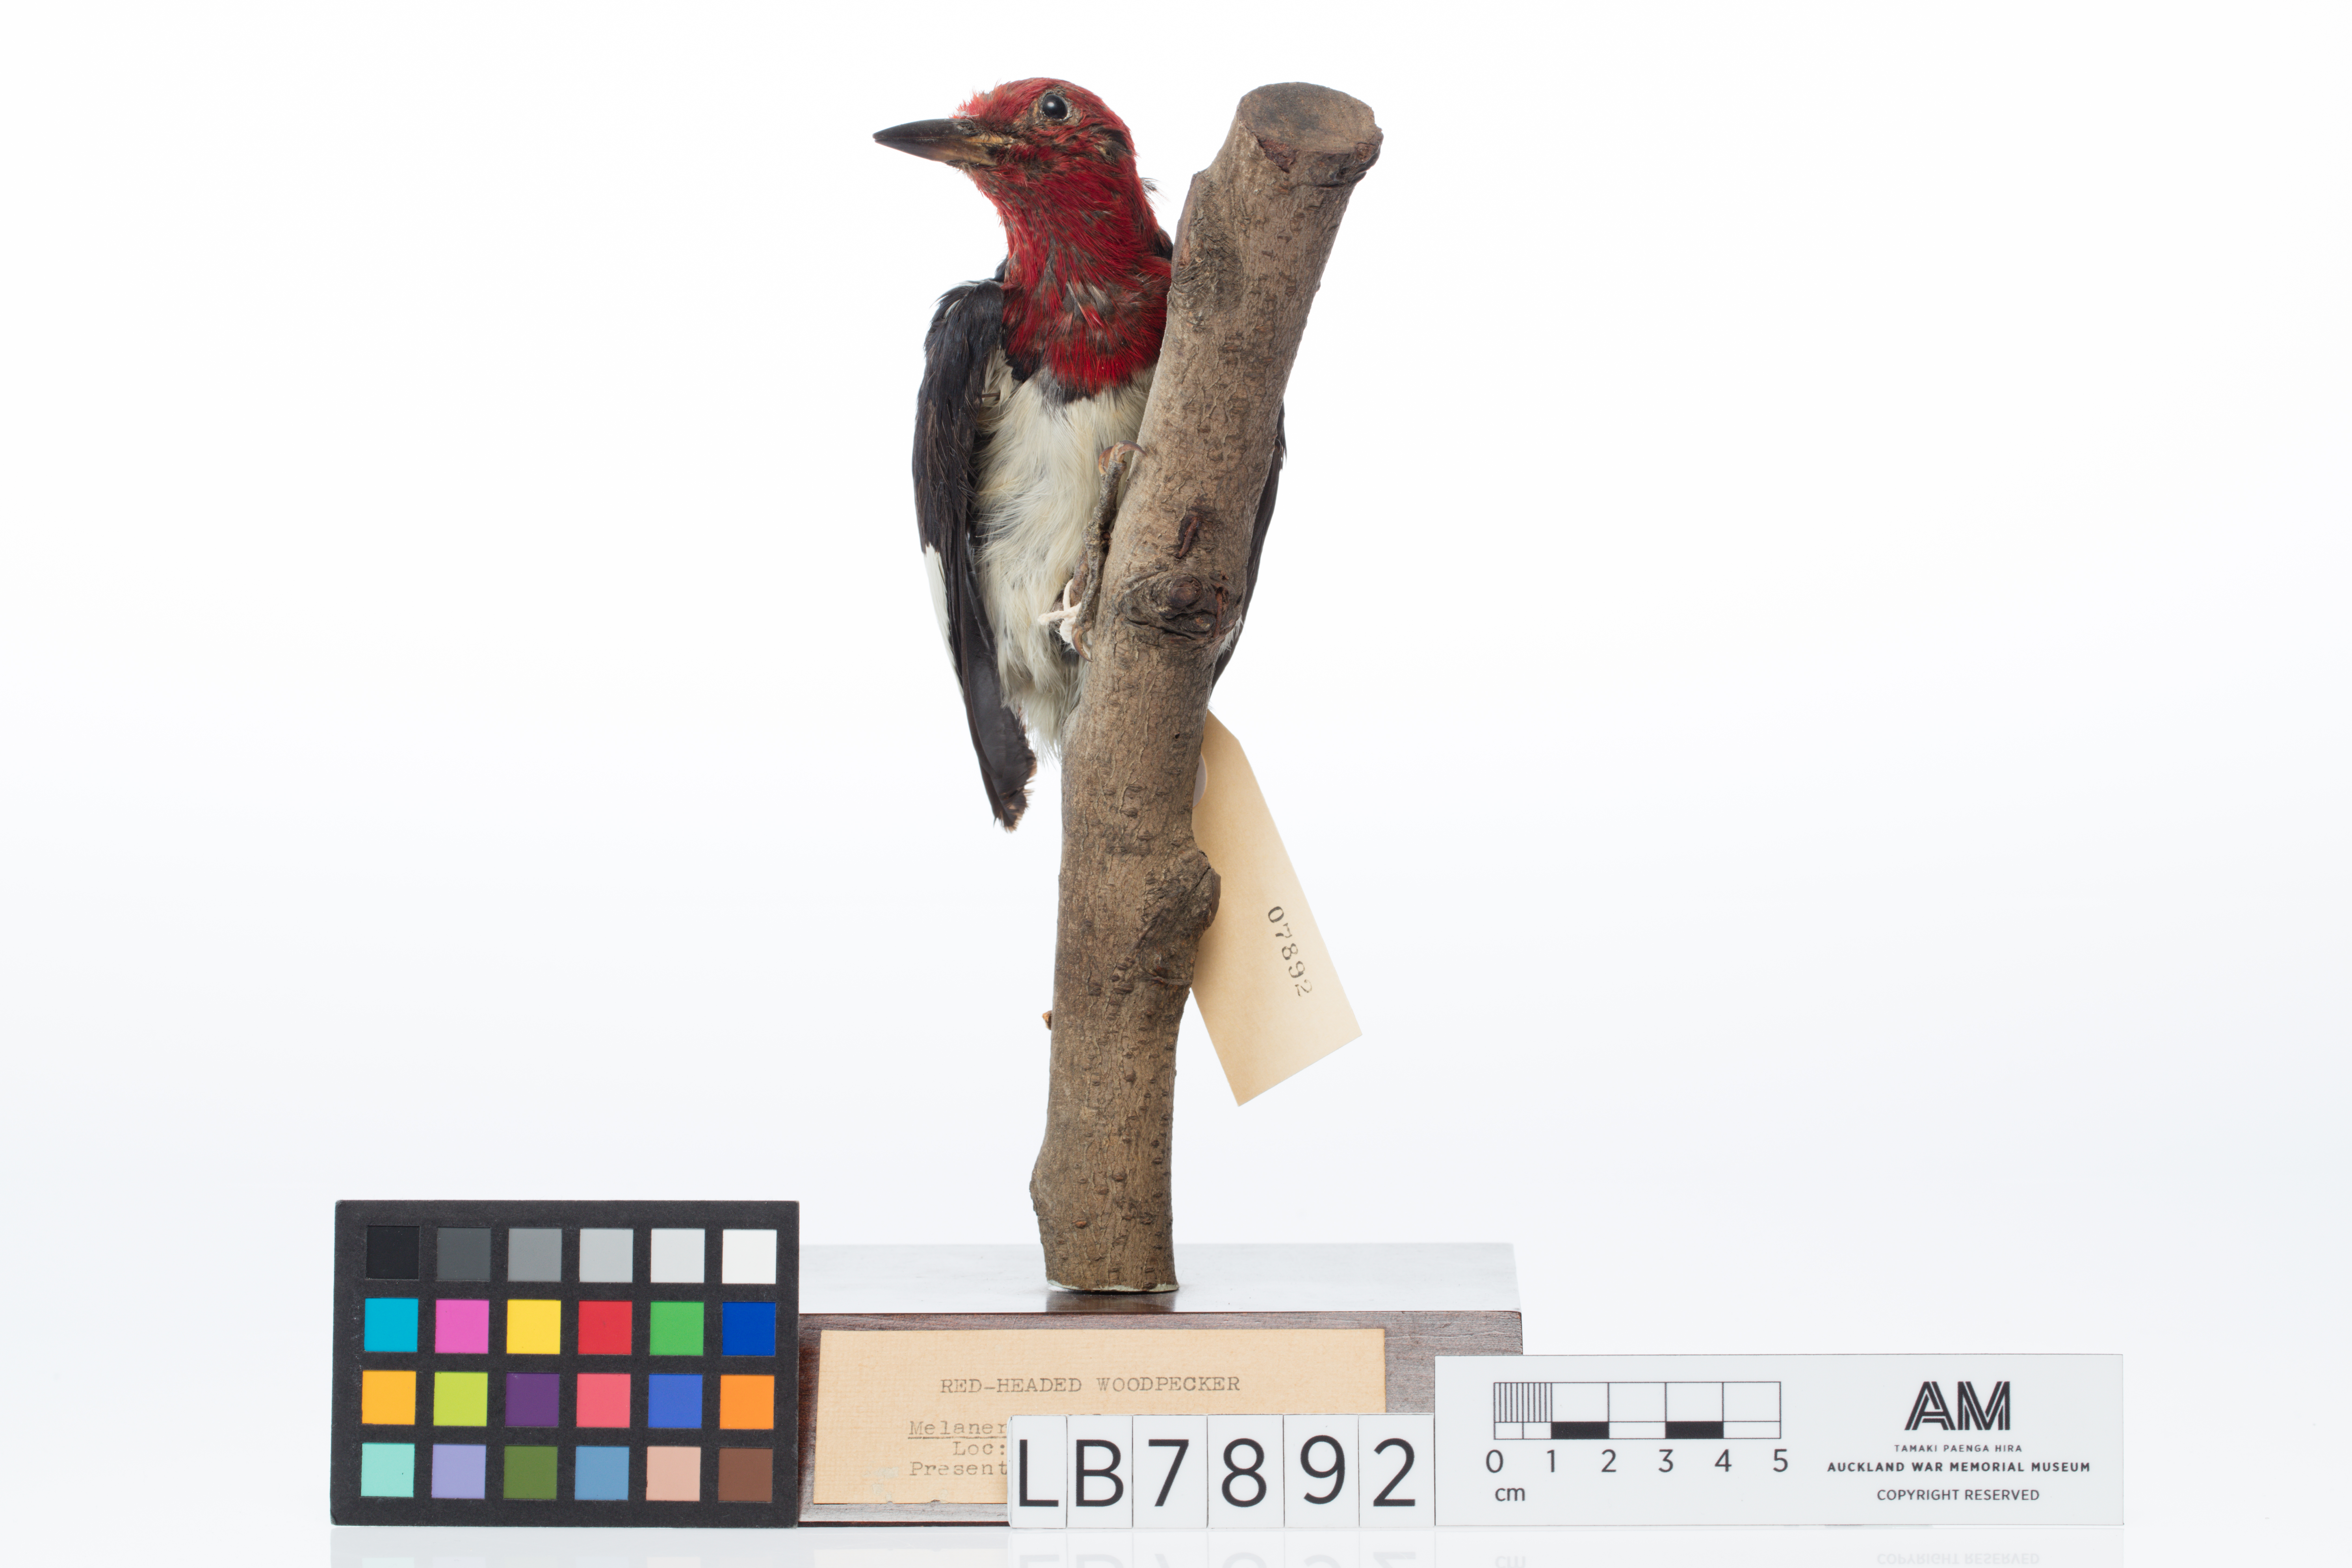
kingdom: Animalia
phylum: Chordata
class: Aves
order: Piciformes
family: Picidae
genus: Melanerpes
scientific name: Melanerpes erythrocephalus
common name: Red-headed woodpecker
